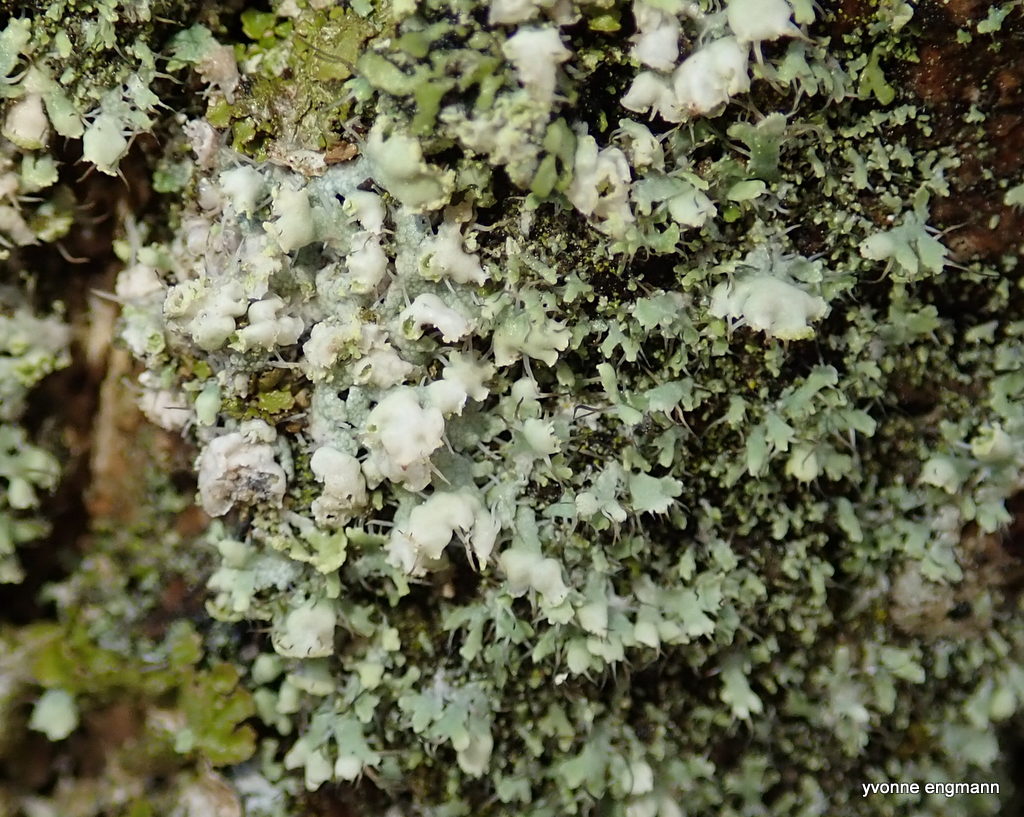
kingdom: Fungi
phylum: Ascomycota
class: Lecanoromycetes
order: Caliciales
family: Physciaceae
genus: Physcia
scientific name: Physcia adscendens
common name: hætte-rosetlav
